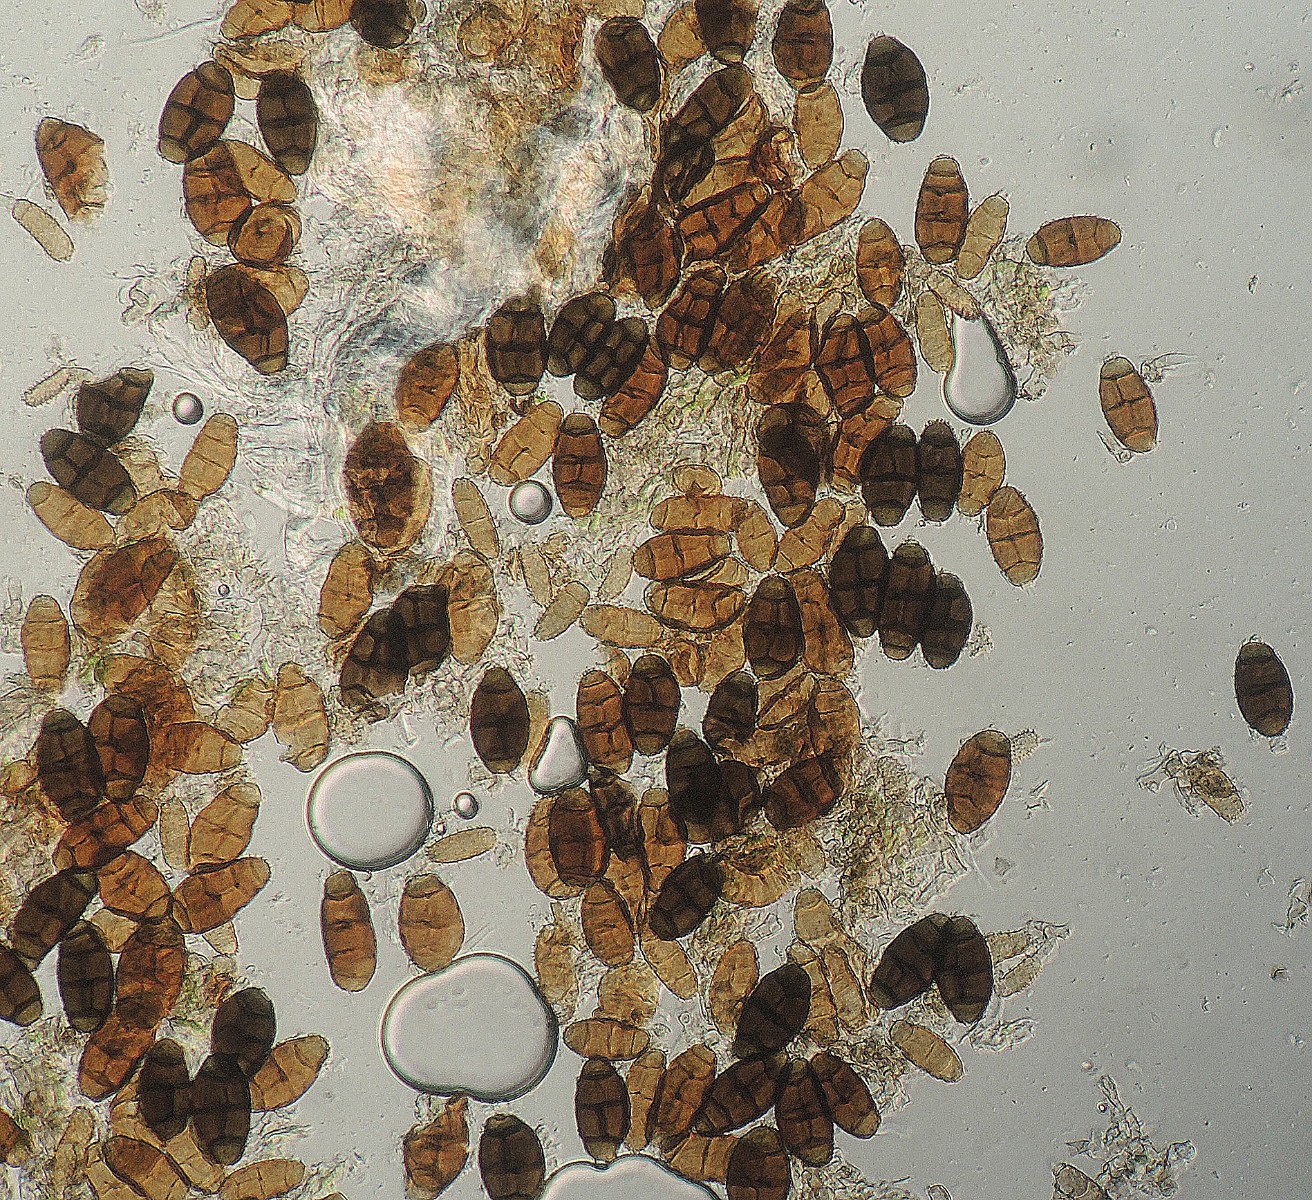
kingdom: Fungi
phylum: Ascomycota
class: Dothideomycetes
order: Pleosporales
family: Pleosporaceae
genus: Alternaria
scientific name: Alternaria alternata
